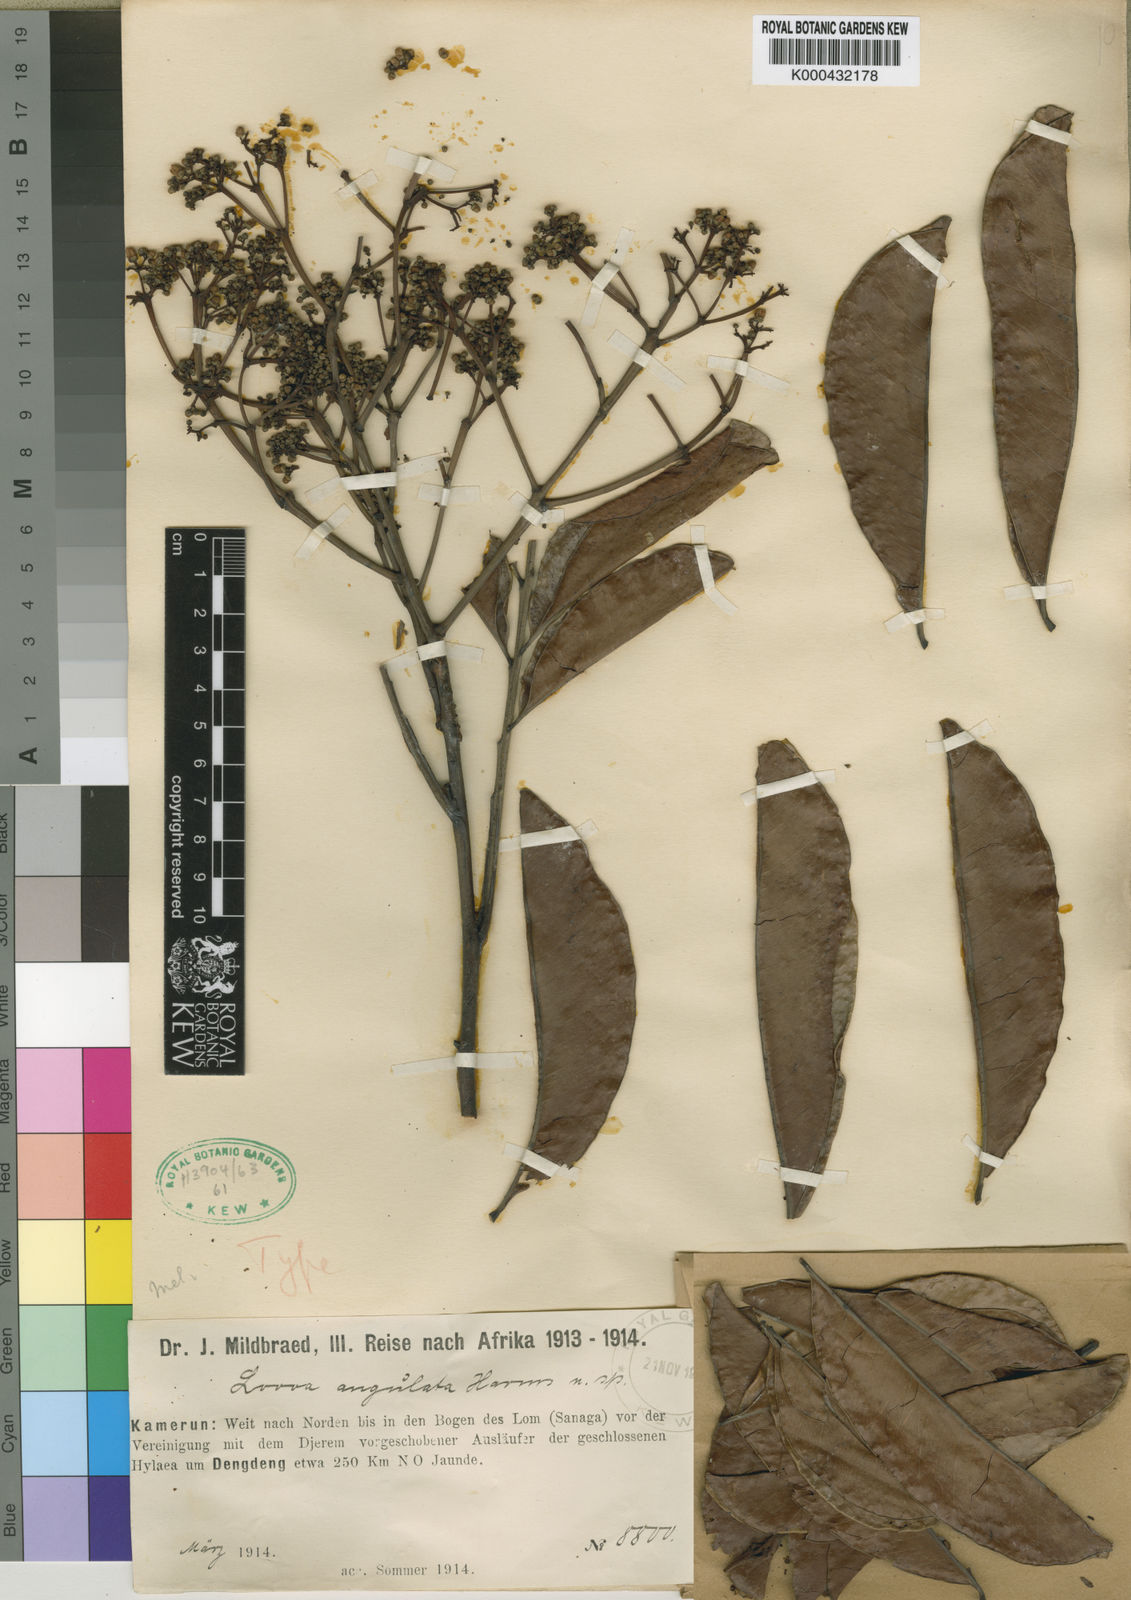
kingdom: Plantae
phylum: Tracheophyta
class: Magnoliopsida
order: Sapindales
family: Meliaceae
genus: Lovoa
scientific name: Lovoa trichilioides
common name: Congowood
